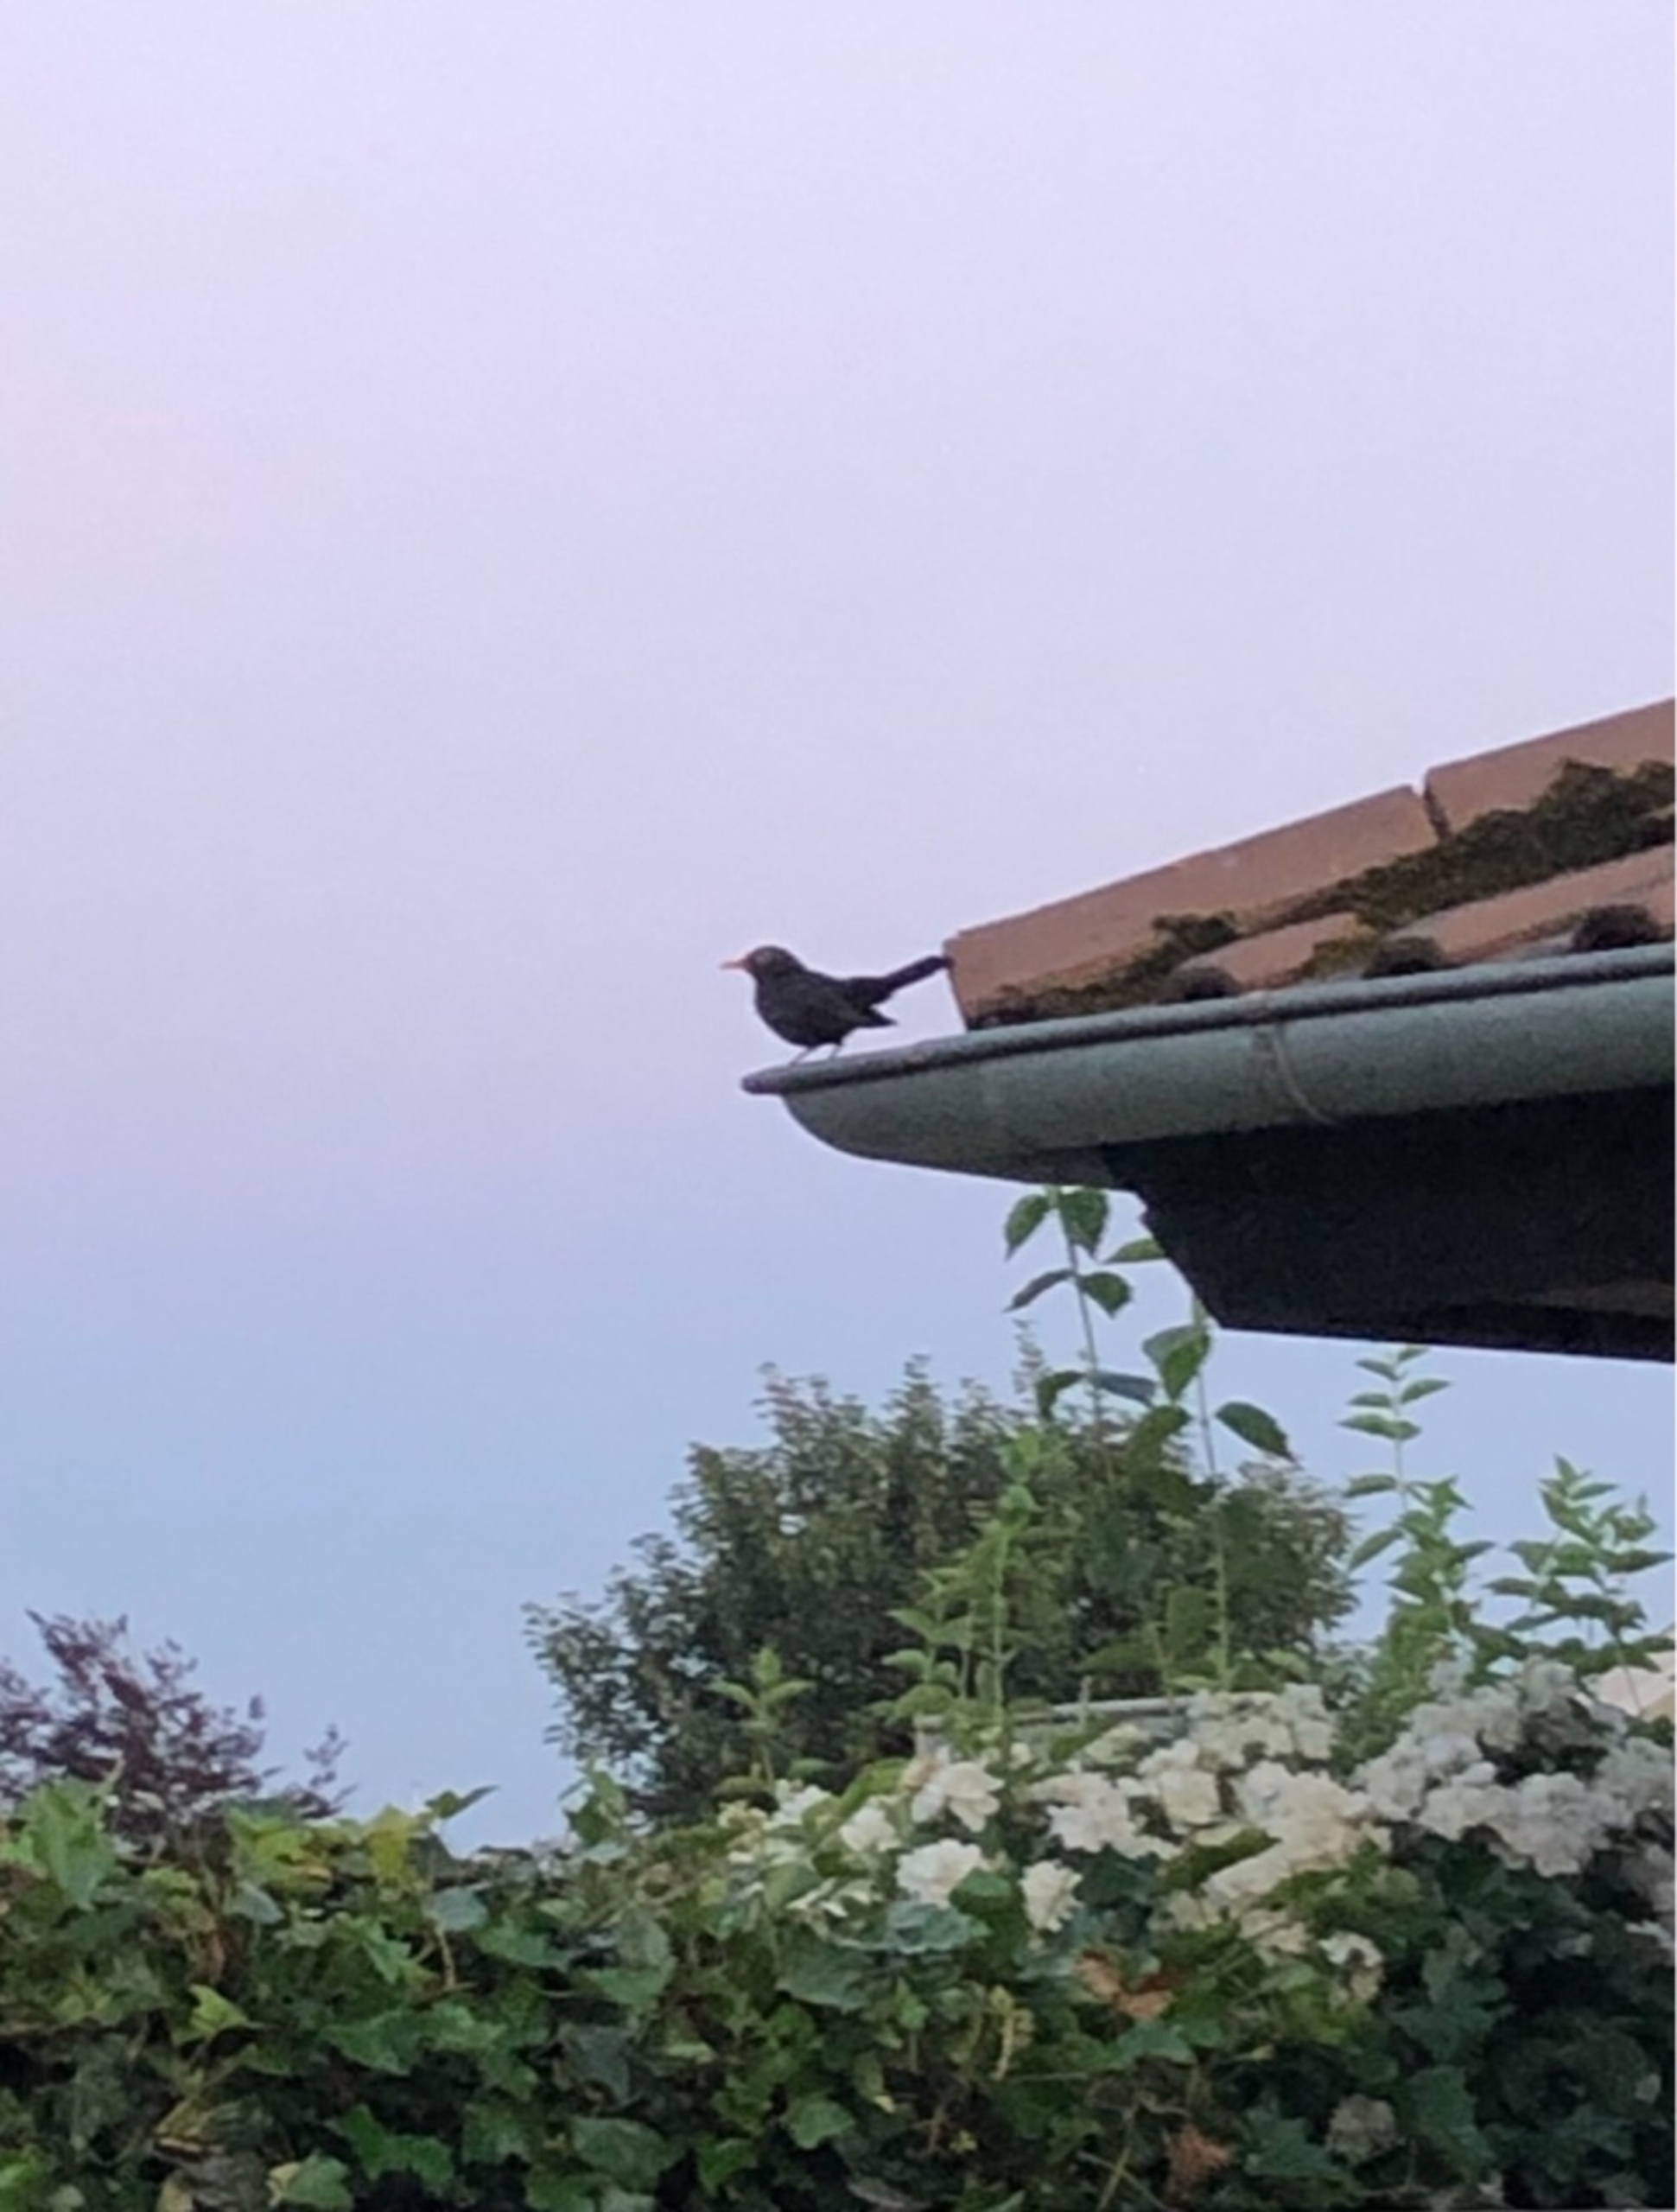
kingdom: Animalia
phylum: Chordata
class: Aves
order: Passeriformes
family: Turdidae
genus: Turdus
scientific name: Turdus merula
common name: Solsort
